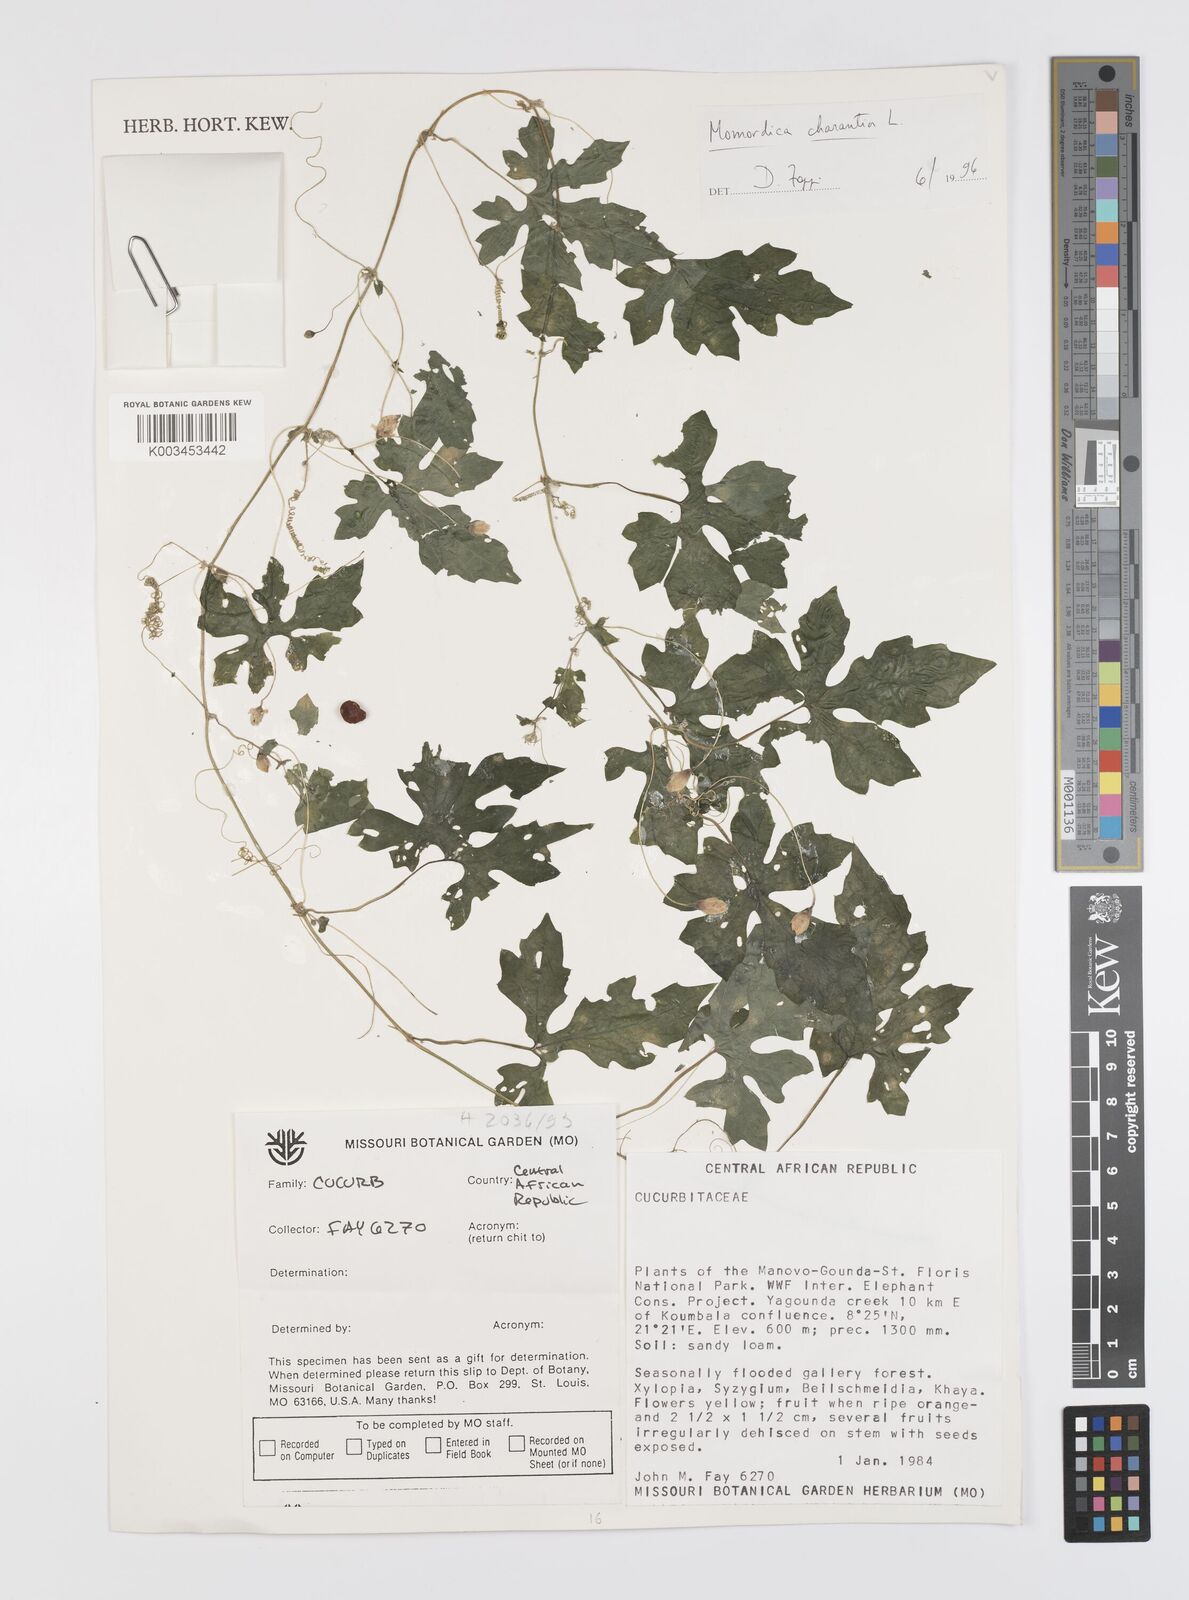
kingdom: Plantae
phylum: Tracheophyta
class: Magnoliopsida
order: Cucurbitales
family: Cucurbitaceae
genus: Momordica
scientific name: Momordica charantia
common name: Balsampear
